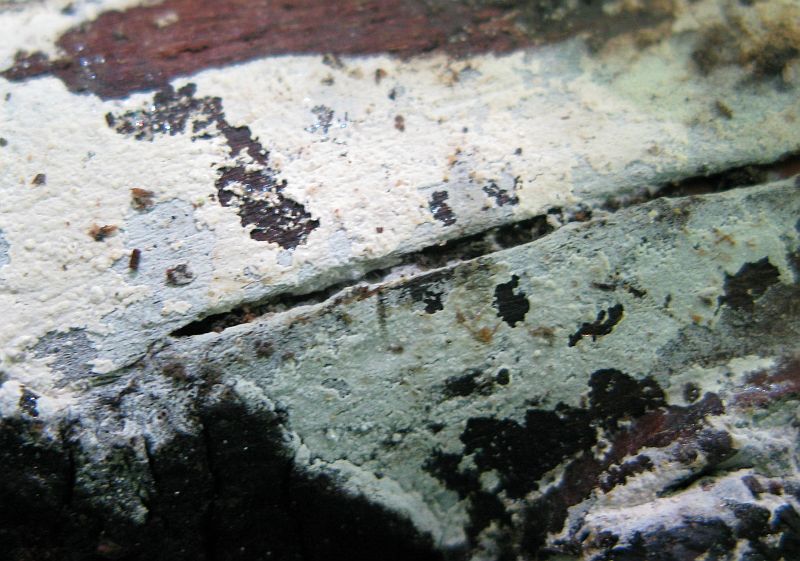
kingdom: Fungi
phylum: Basidiomycota
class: Agaricomycetes
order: Hymenochaetales
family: Hyphodontiaceae
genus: Hyphodontia
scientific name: Hyphodontia alutaria
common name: flaskerenser-nålehinde
